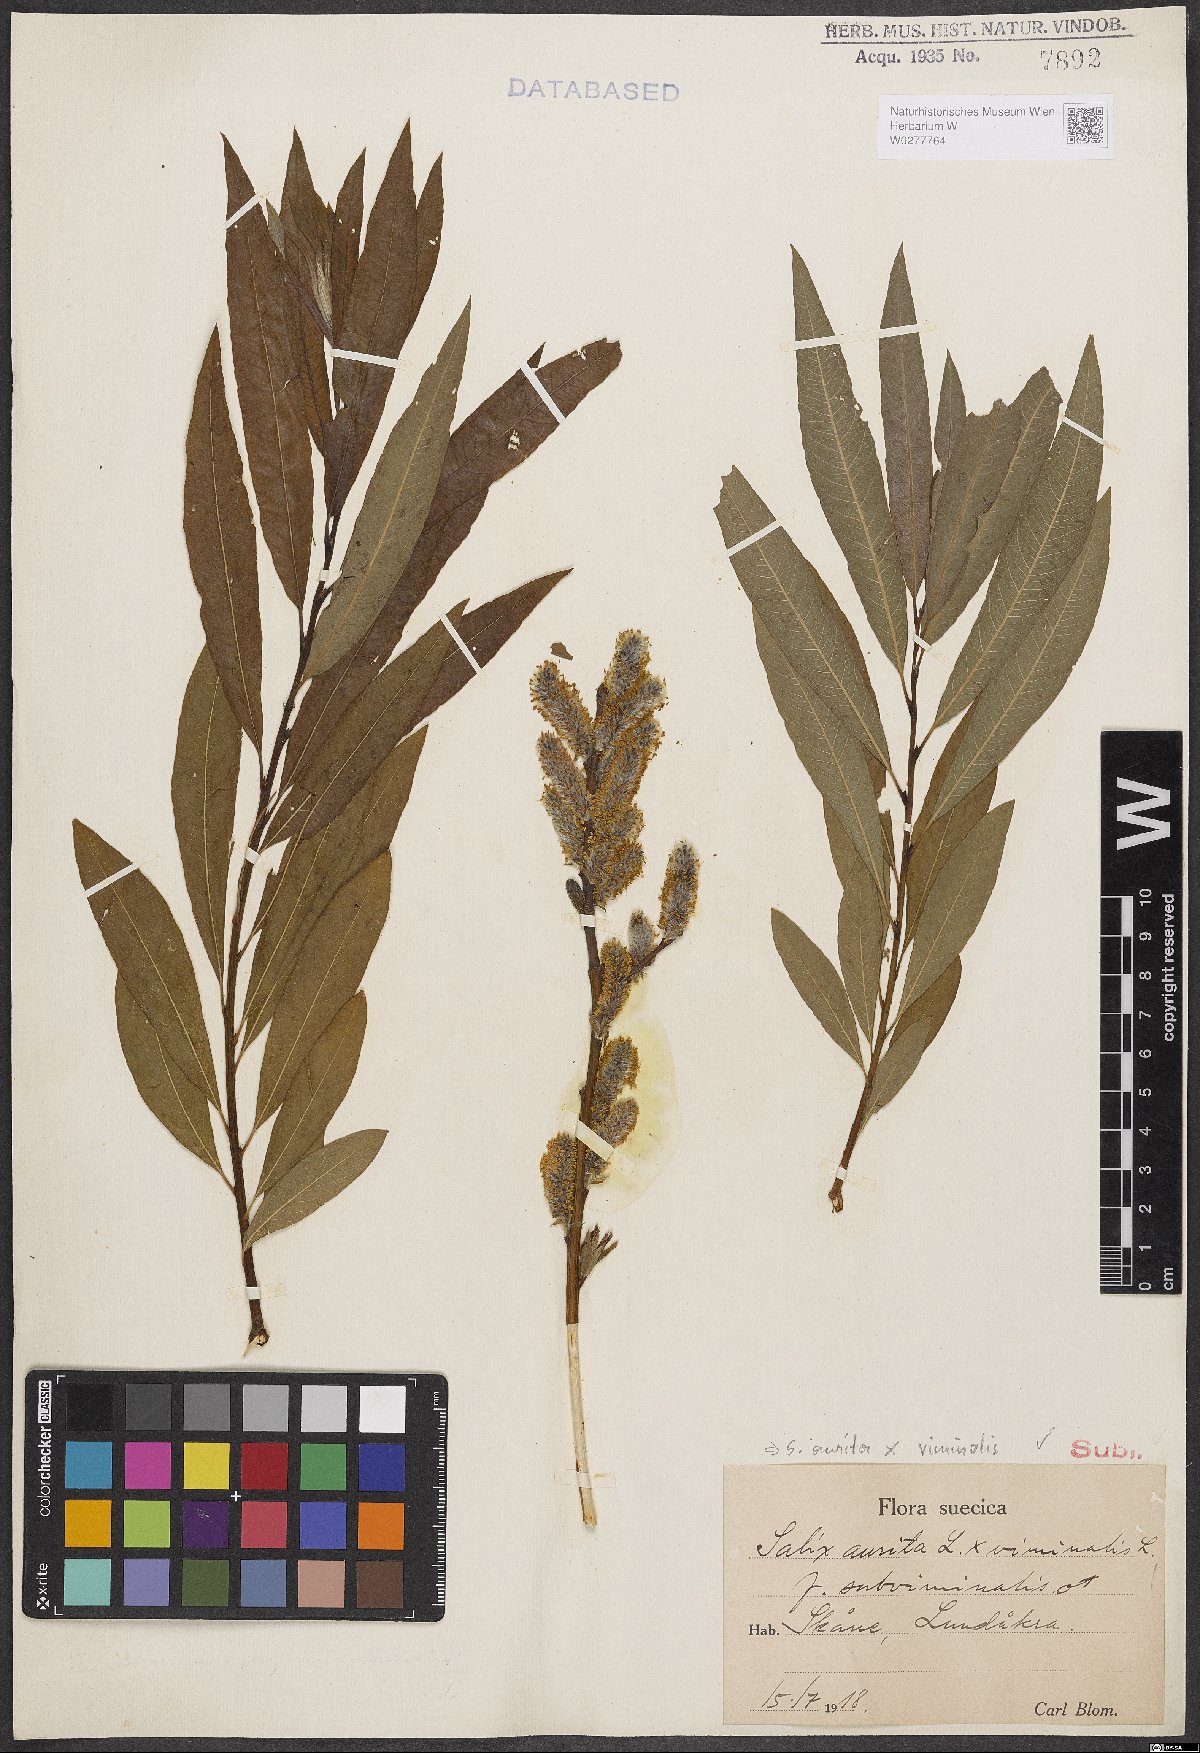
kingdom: Plantae
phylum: Tracheophyta
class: Magnoliopsida
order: Malpighiales
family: Salicaceae
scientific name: Salicaceae
